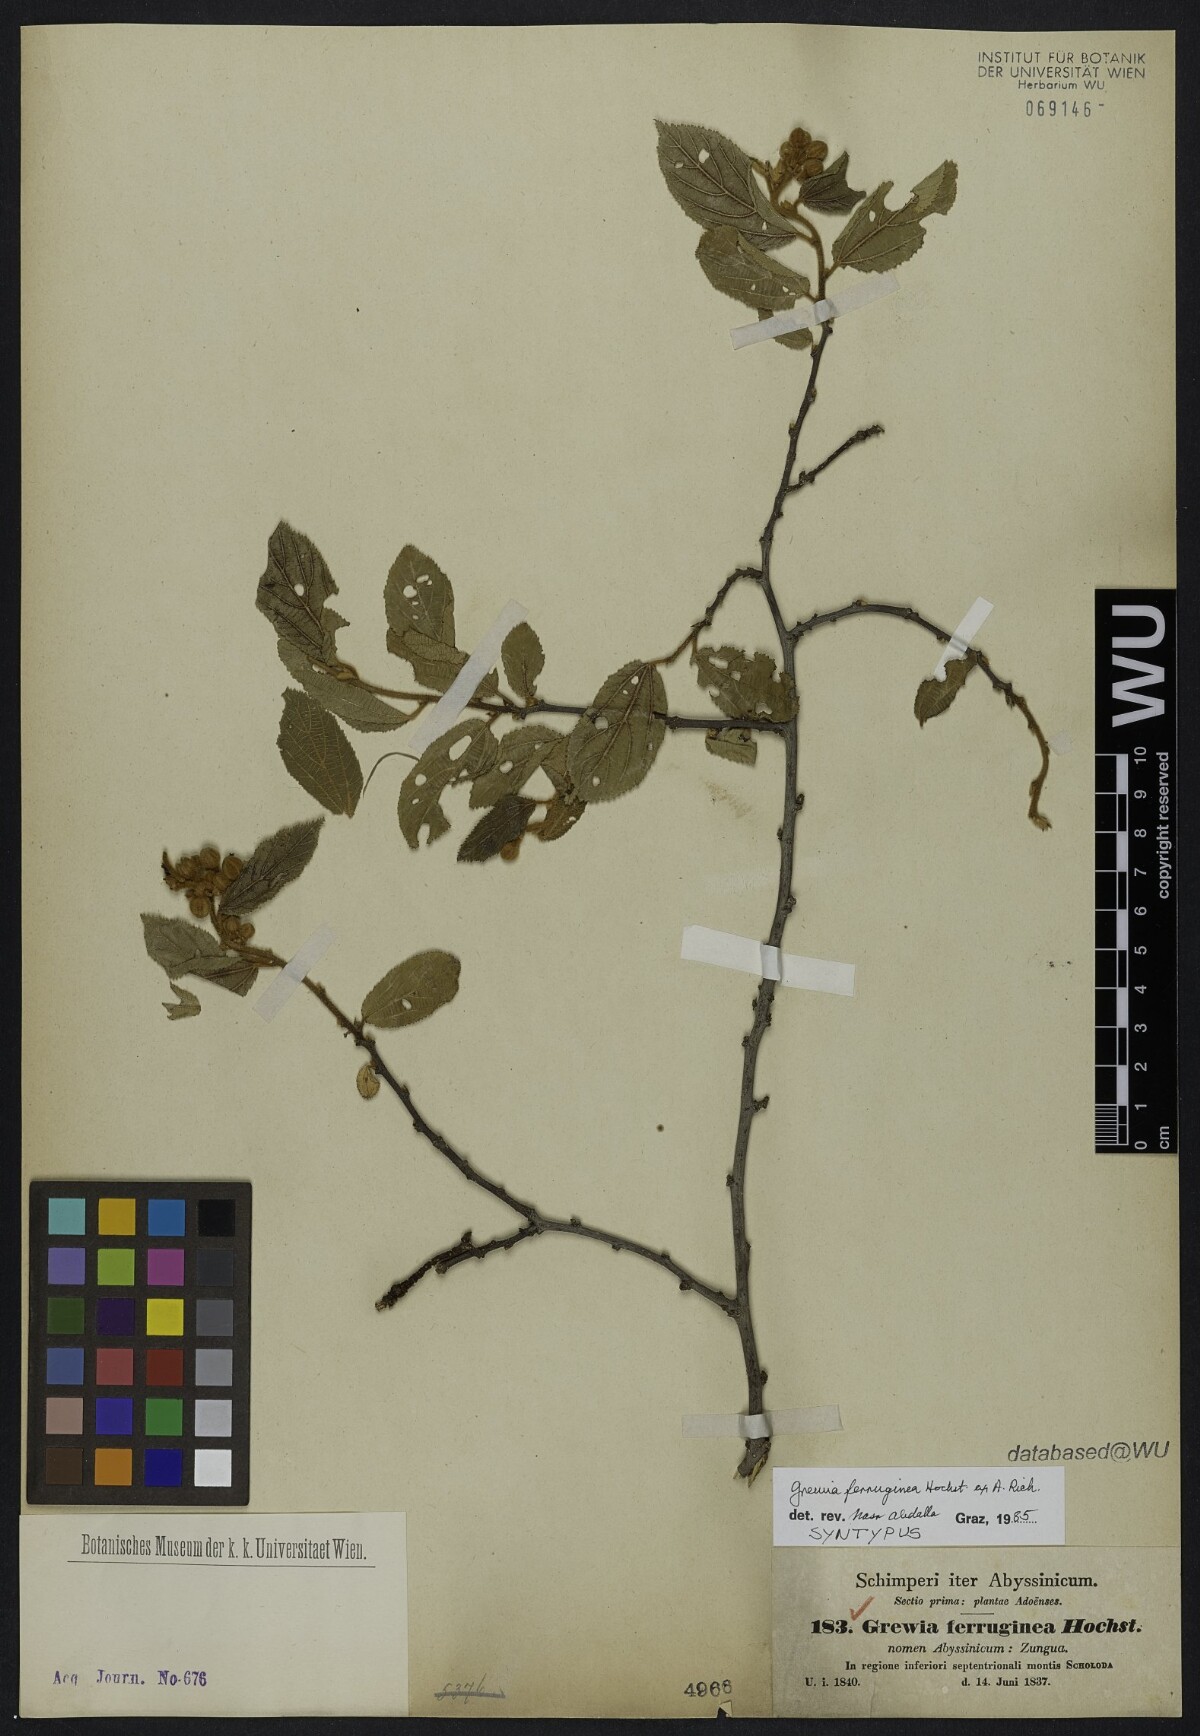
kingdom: Plantae
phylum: Tracheophyta
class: Magnoliopsida
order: Malvales
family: Malvaceae
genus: Grewia
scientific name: Grewia ferruginea
